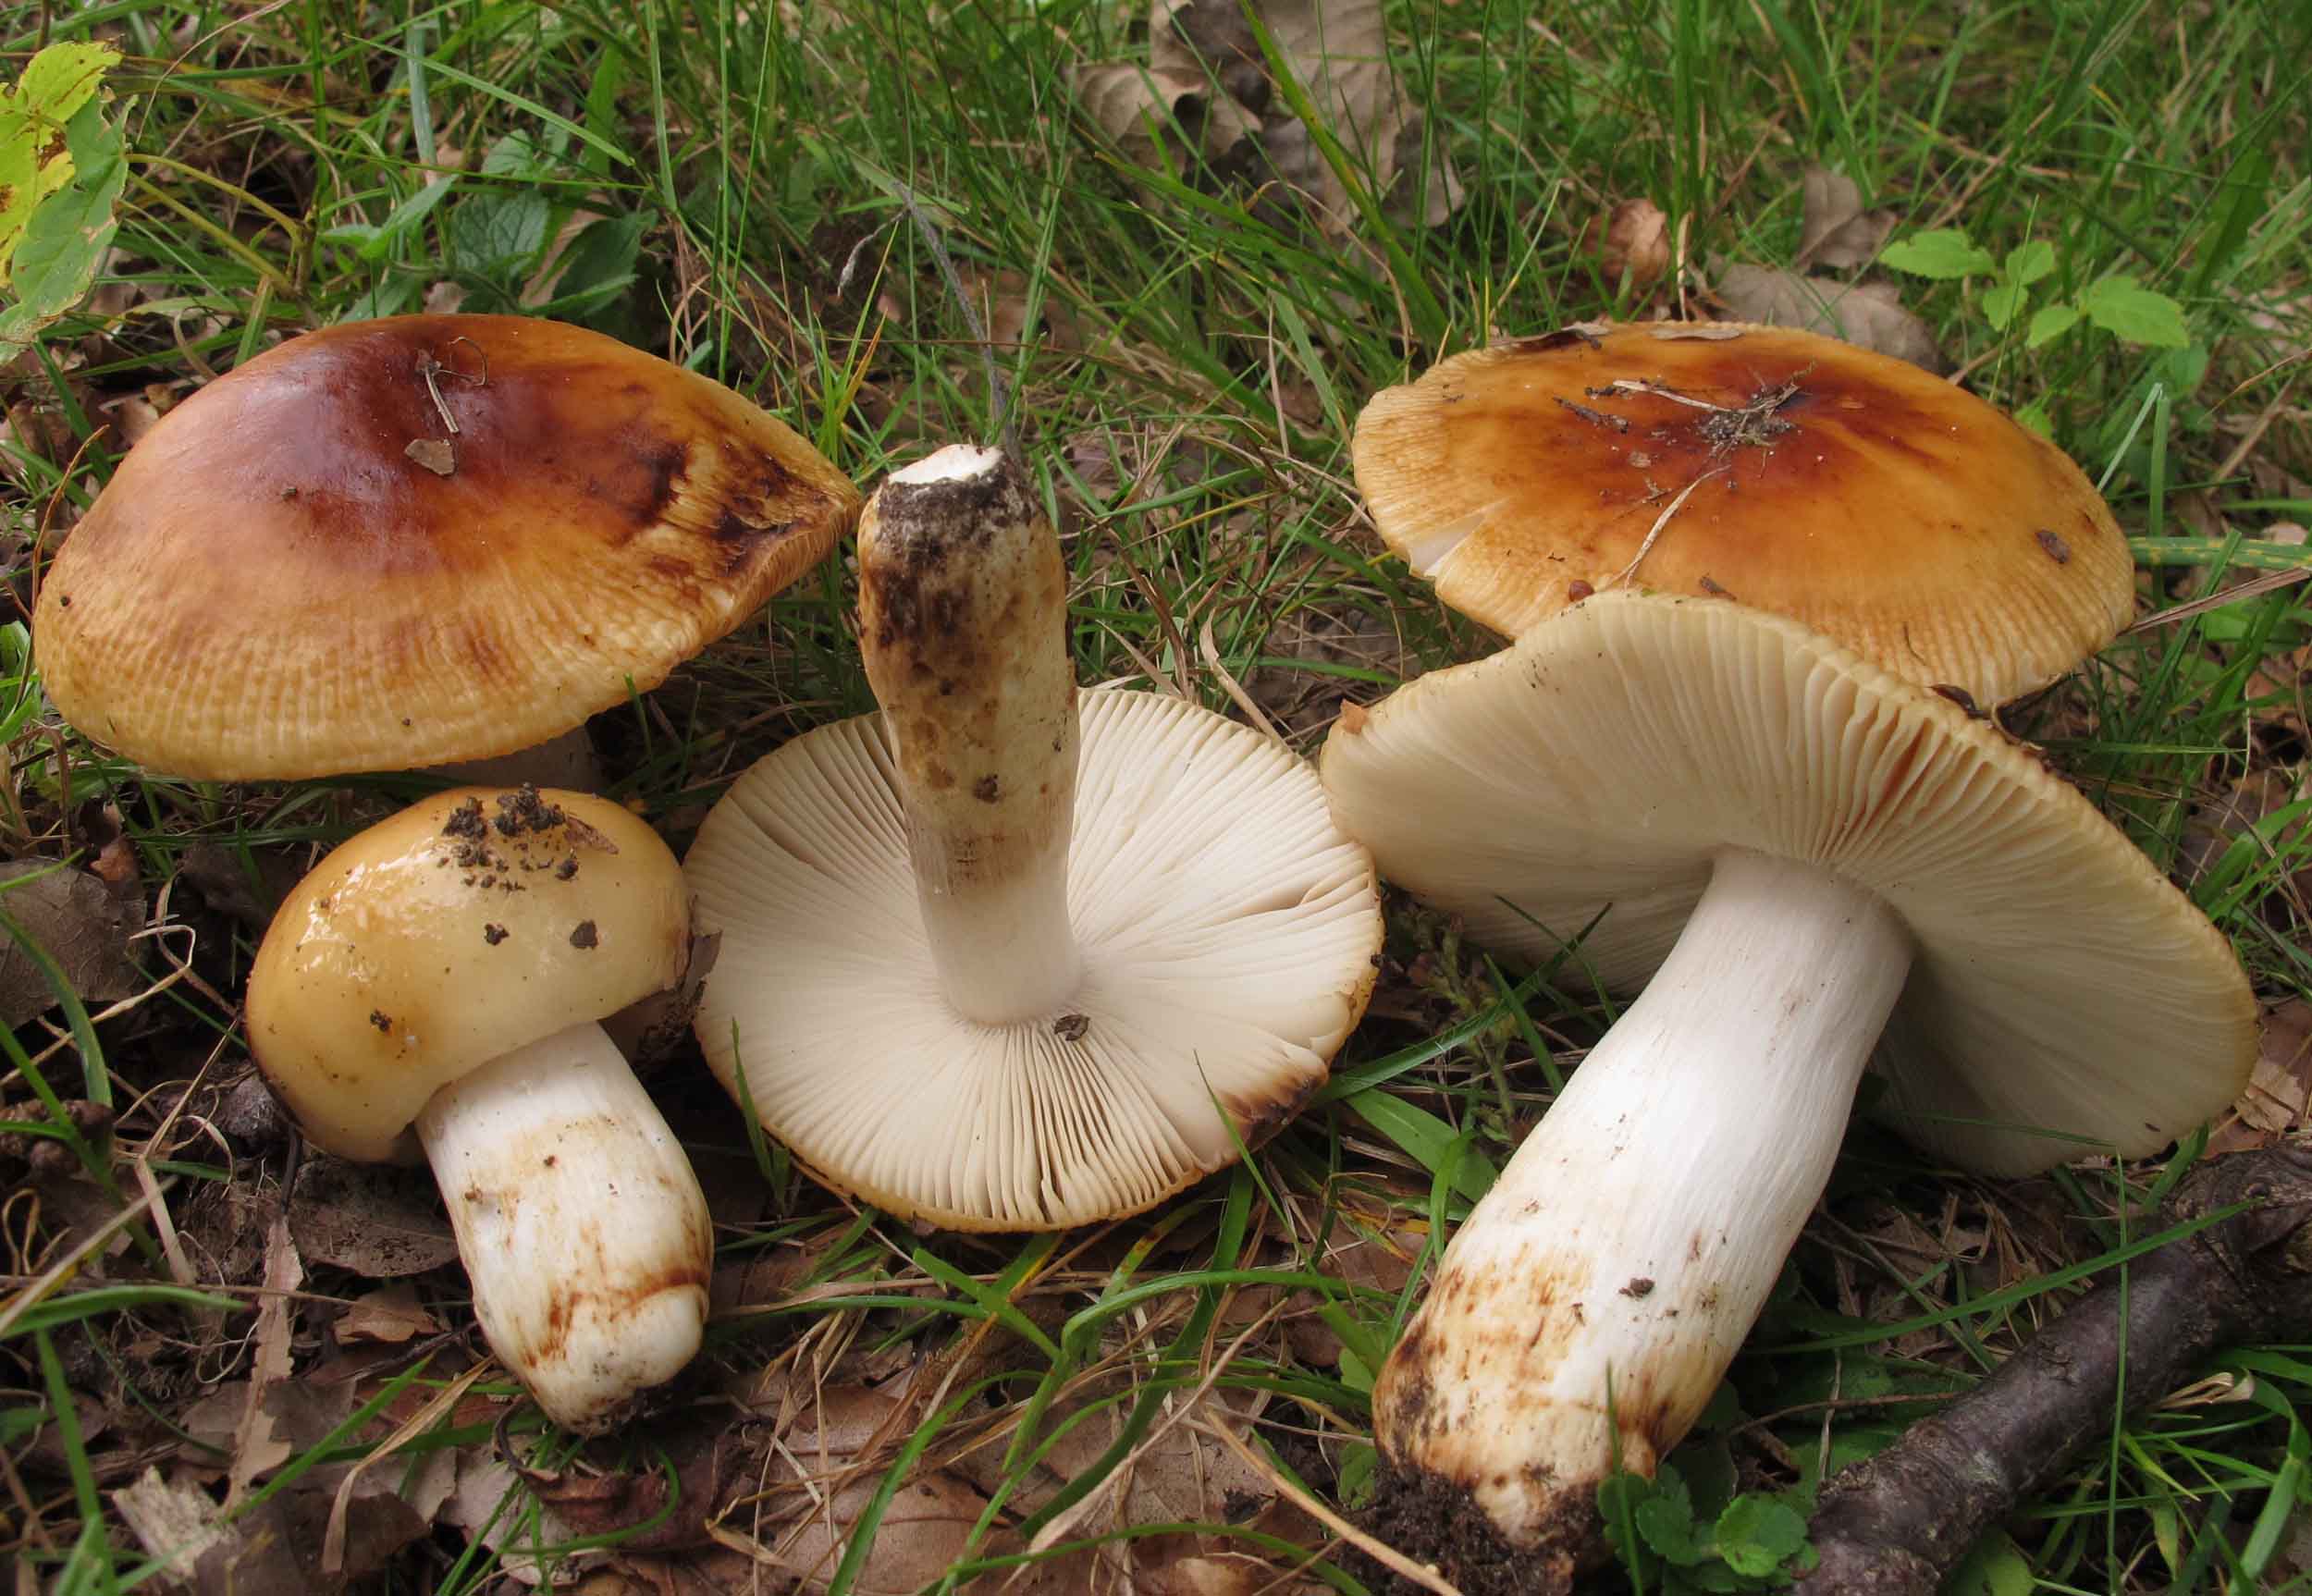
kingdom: Fungi
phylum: Basidiomycota
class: Agaricomycetes
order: Russulales
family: Russulaceae
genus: Russula
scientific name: Russula grata
